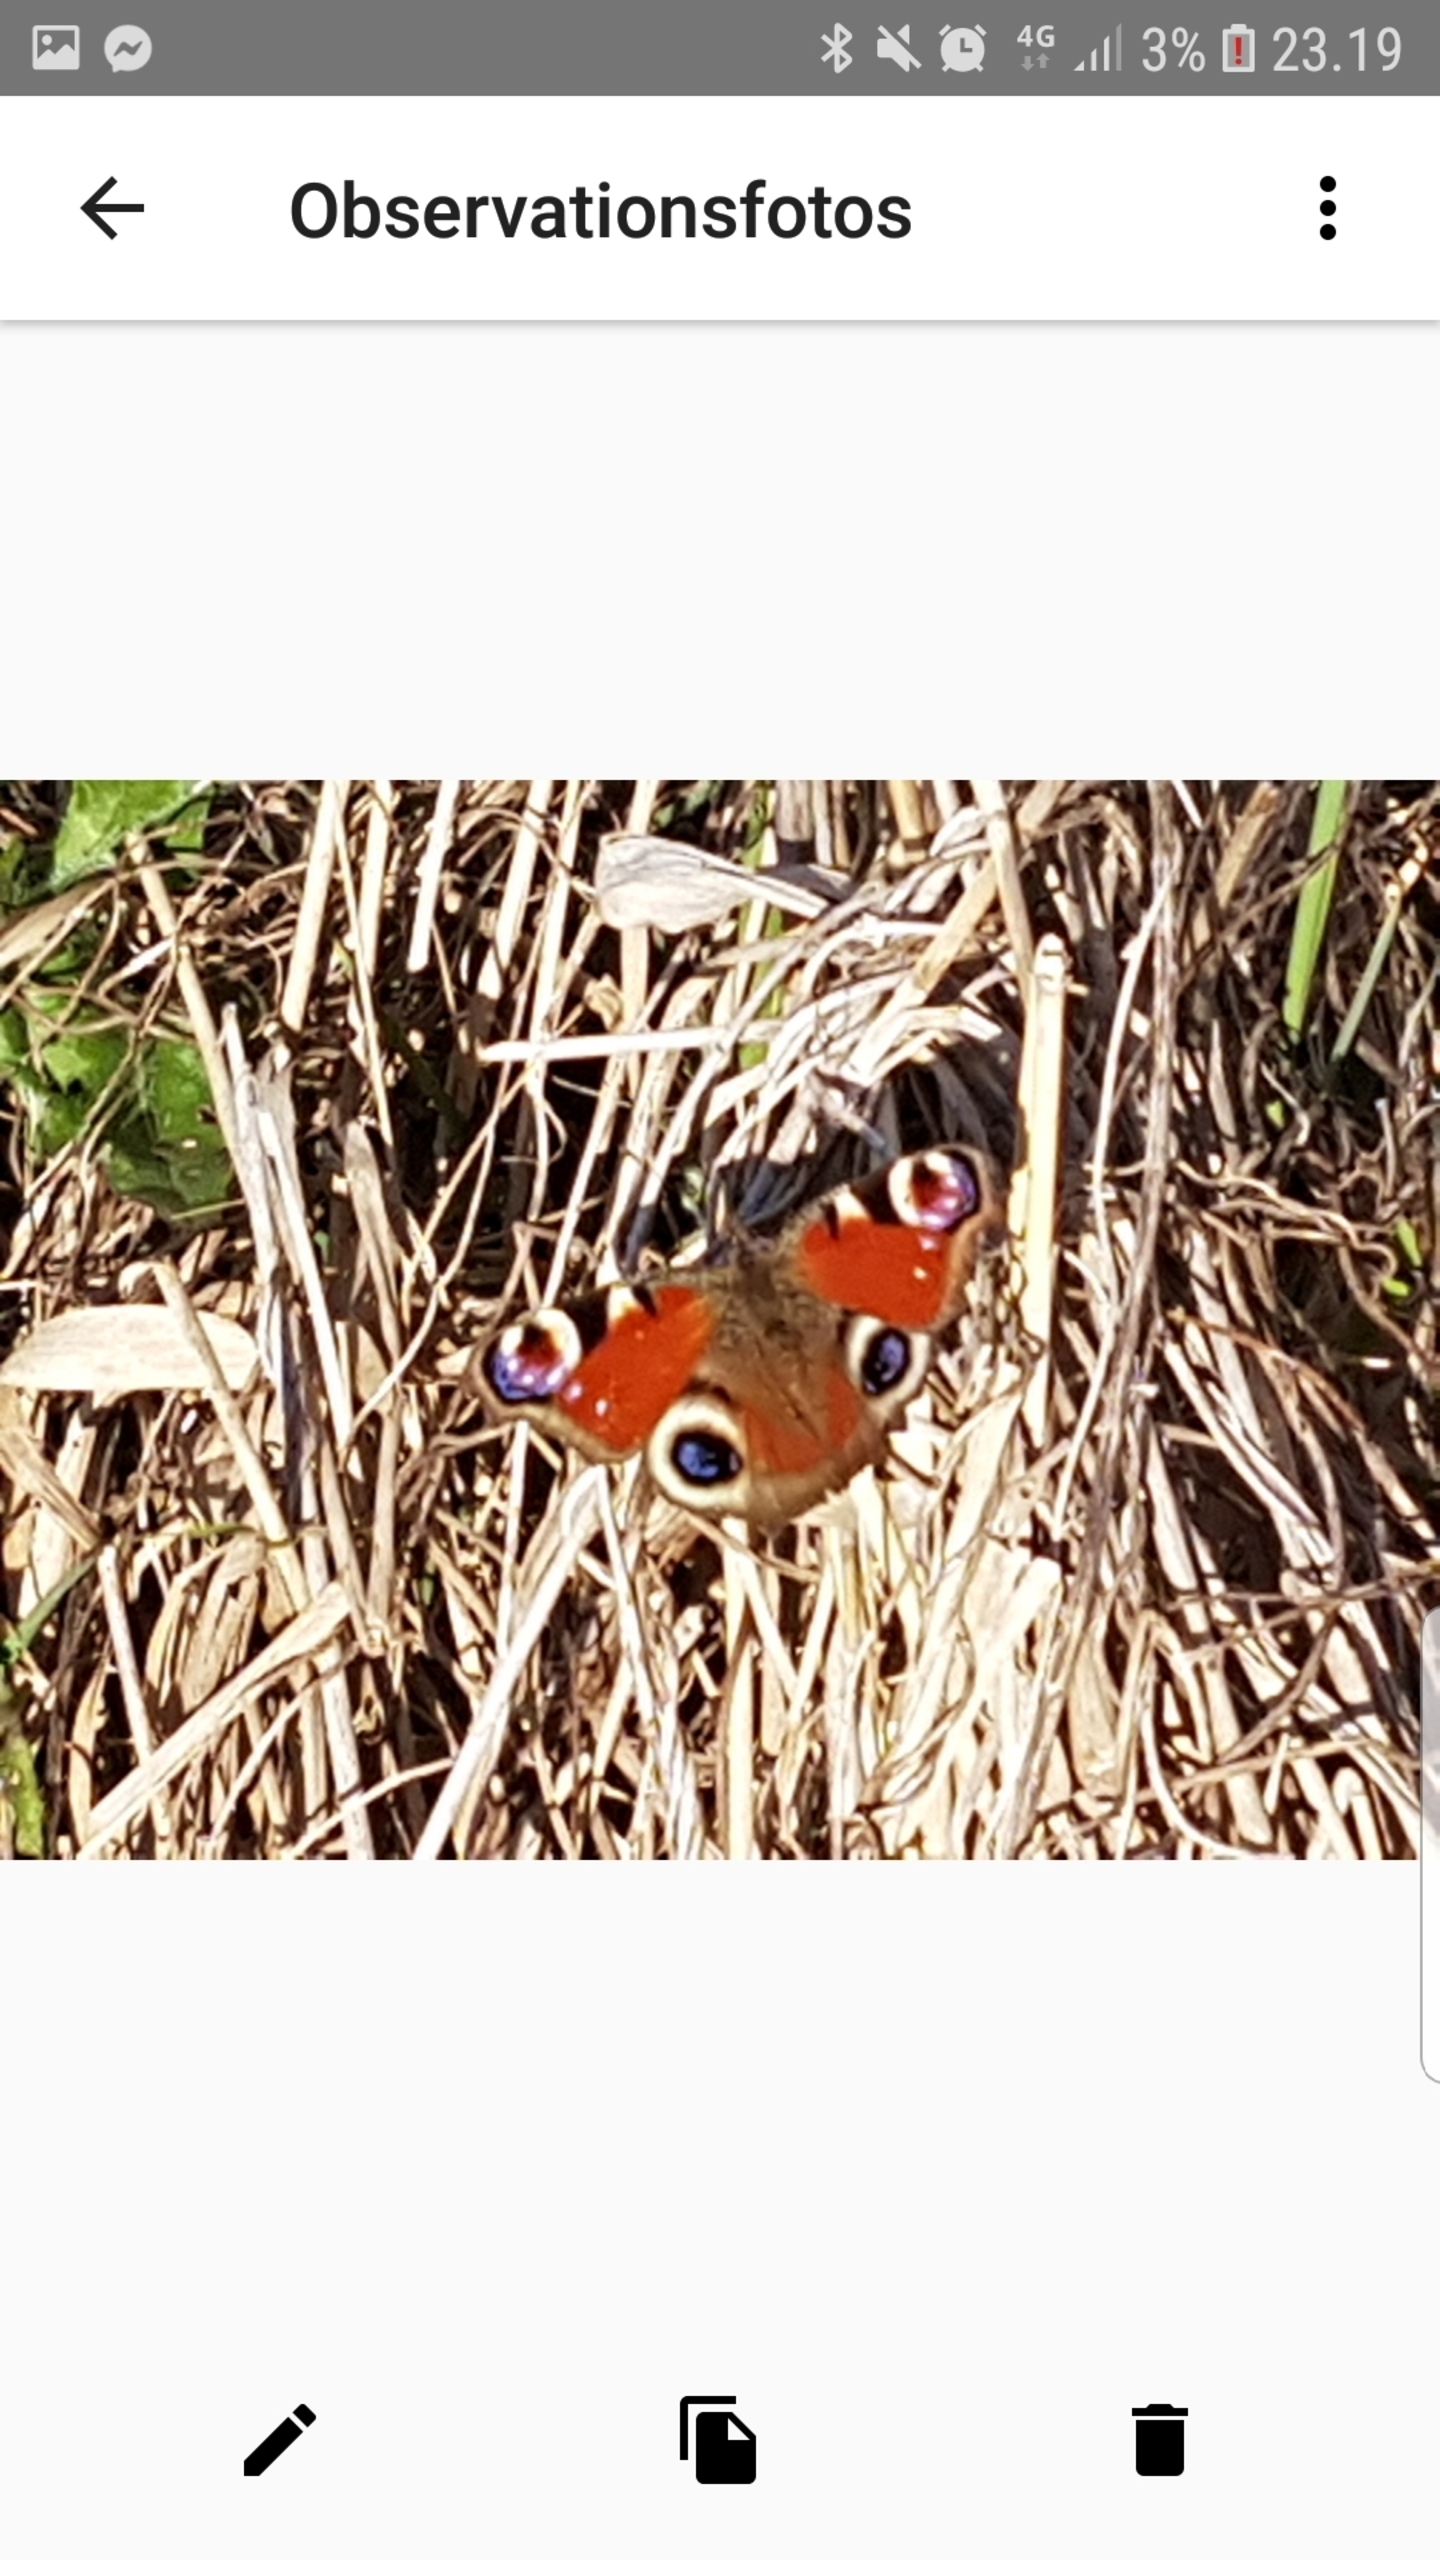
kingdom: Animalia
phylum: Arthropoda
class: Insecta
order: Lepidoptera
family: Nymphalidae
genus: Aglais
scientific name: Aglais io
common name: Dagpåfugleøje
